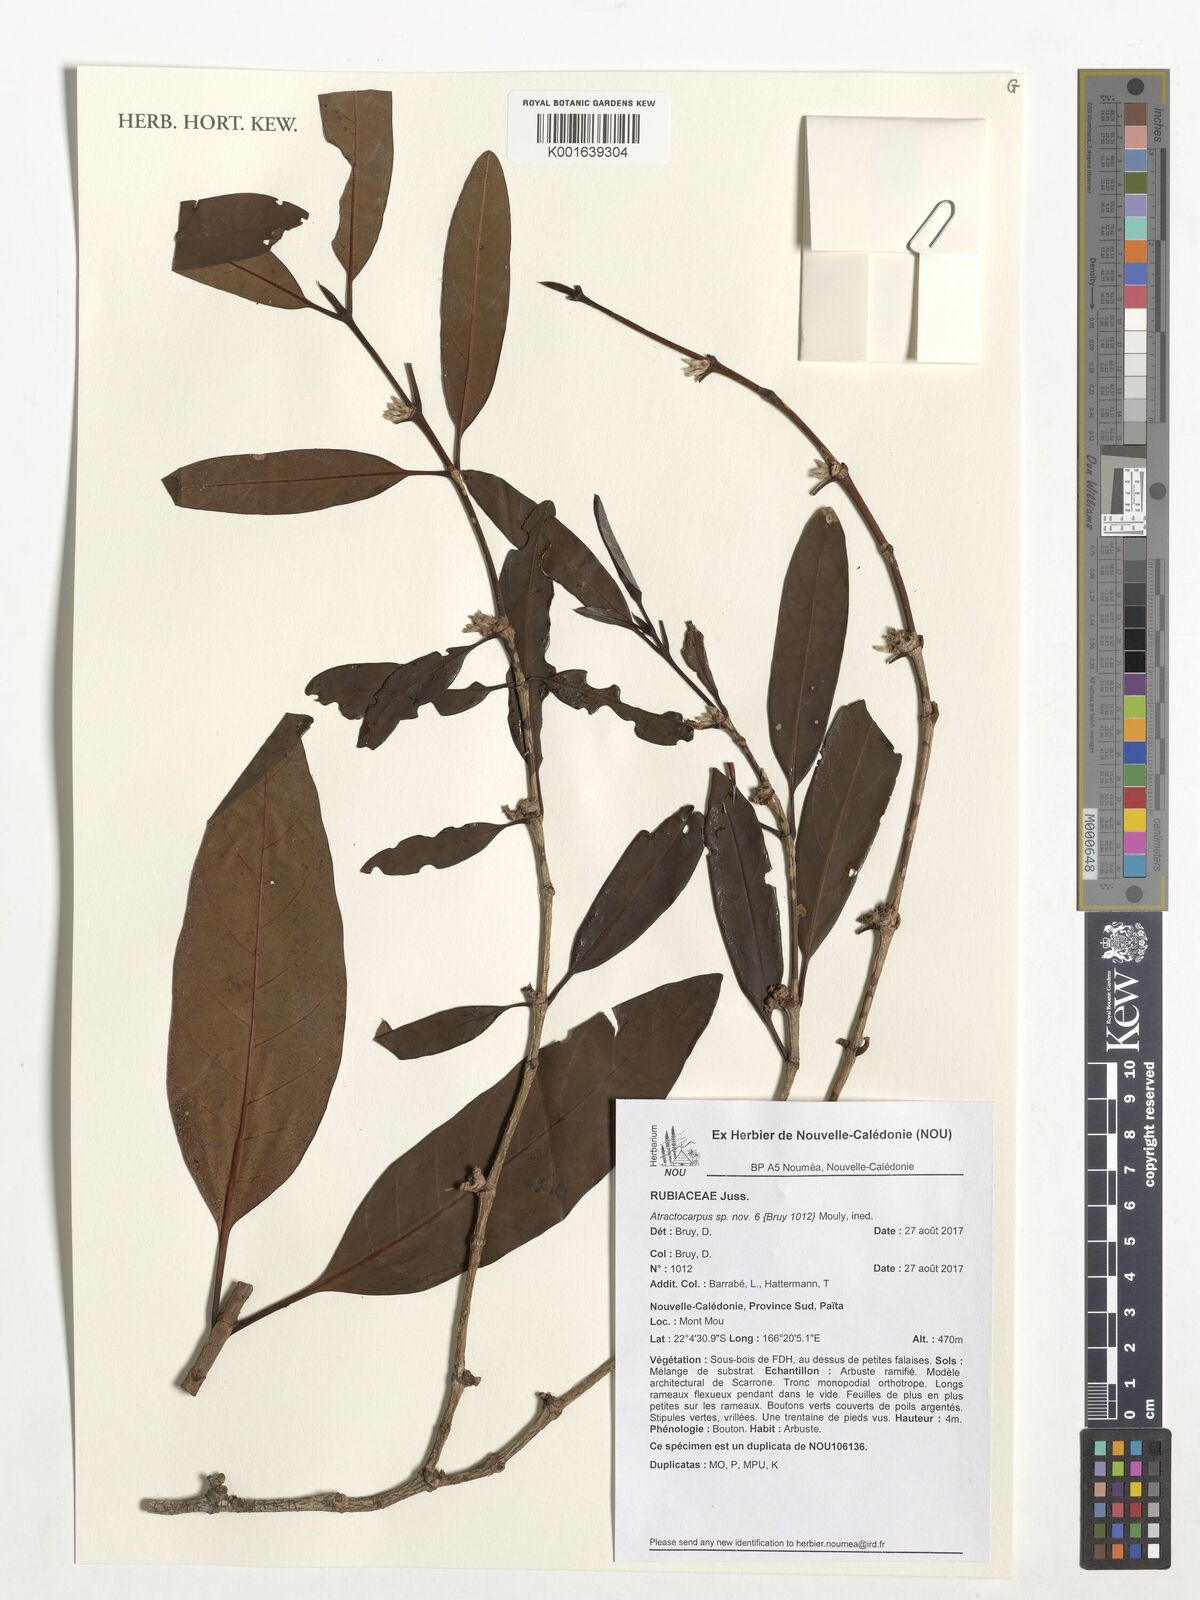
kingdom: Plantae
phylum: Tracheophyta
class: Magnoliopsida
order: Gentianales
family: Rubiaceae
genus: Atractocarpus
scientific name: Atractocarpus
